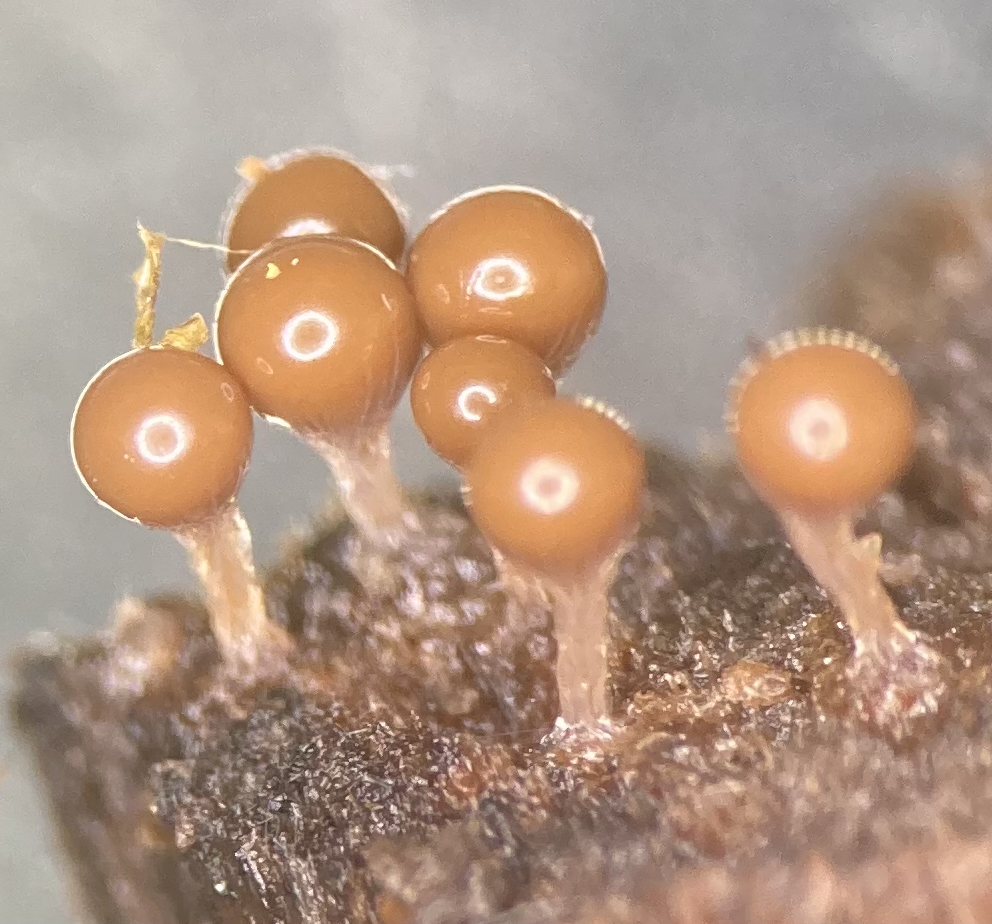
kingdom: Protozoa
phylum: Mycetozoa
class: Myxomycetes
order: Trichiales
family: Trichiaceae
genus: Trichia
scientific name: Trichia
